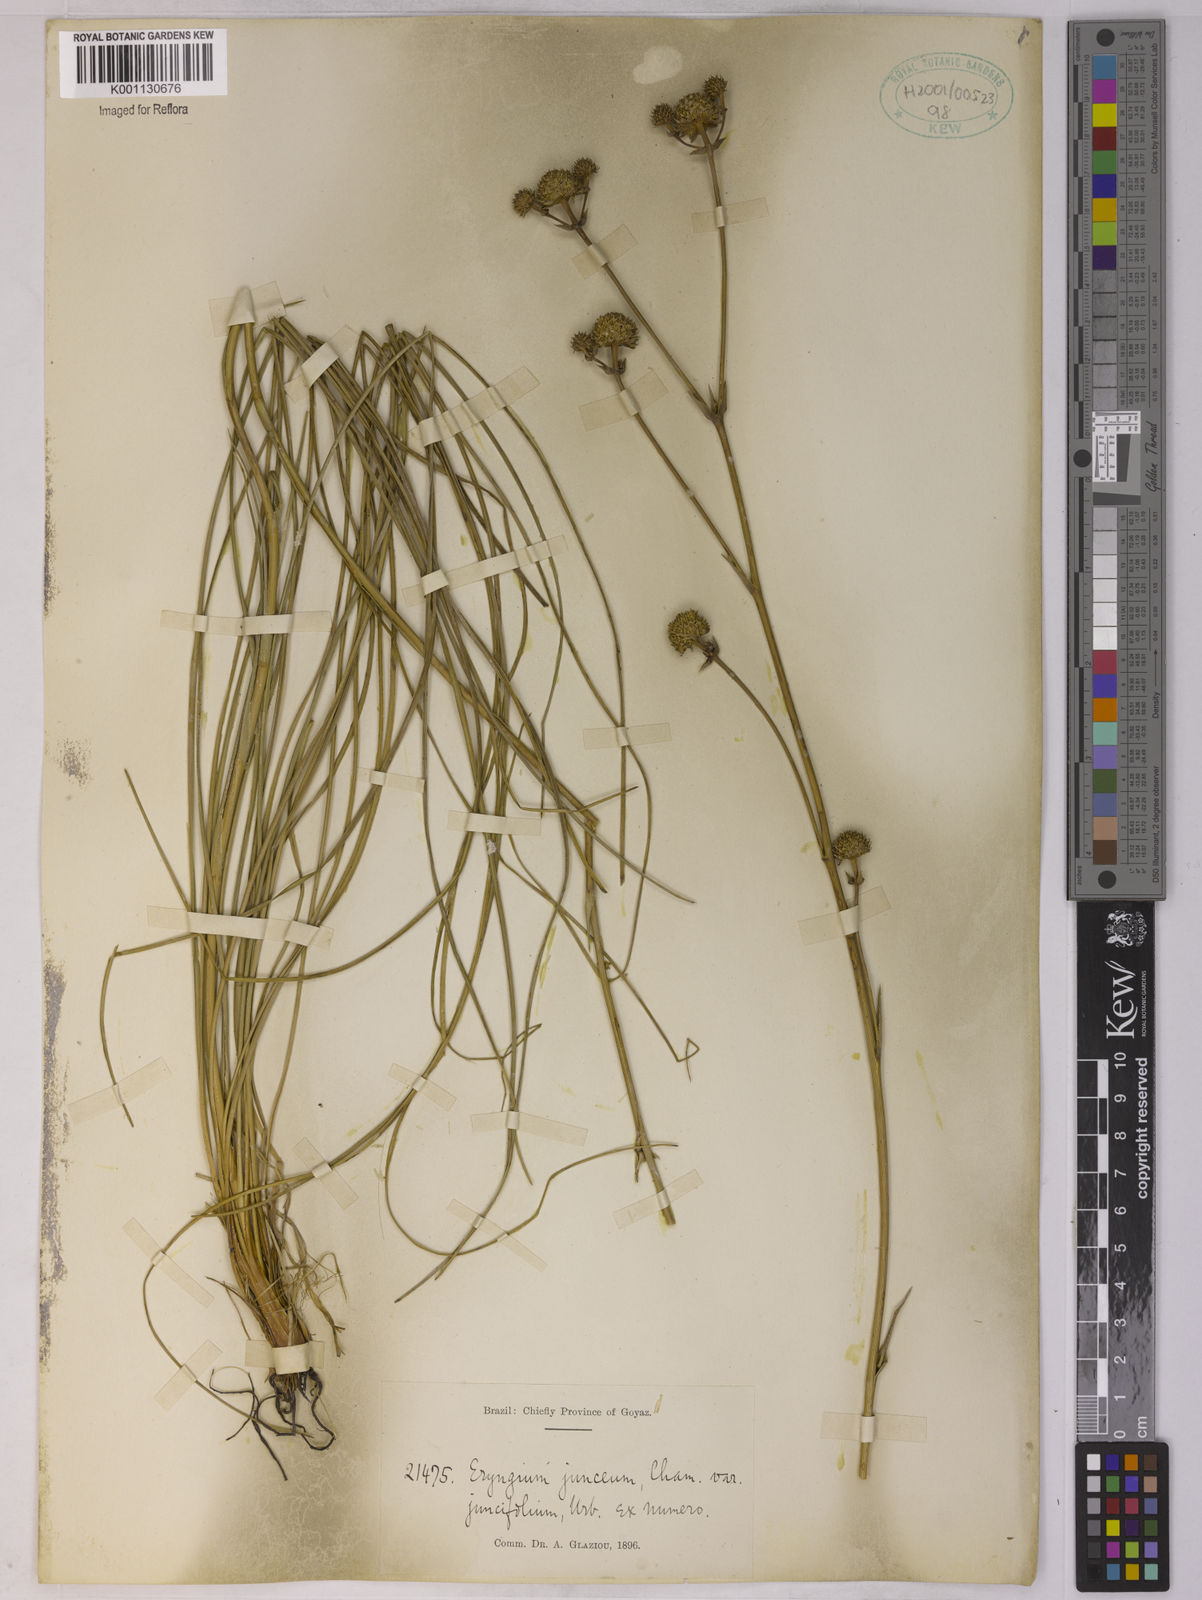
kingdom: Plantae
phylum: Tracheophyta
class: Magnoliopsida
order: Apiales
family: Apiaceae
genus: Eryngium
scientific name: Eryngium juncifolium
